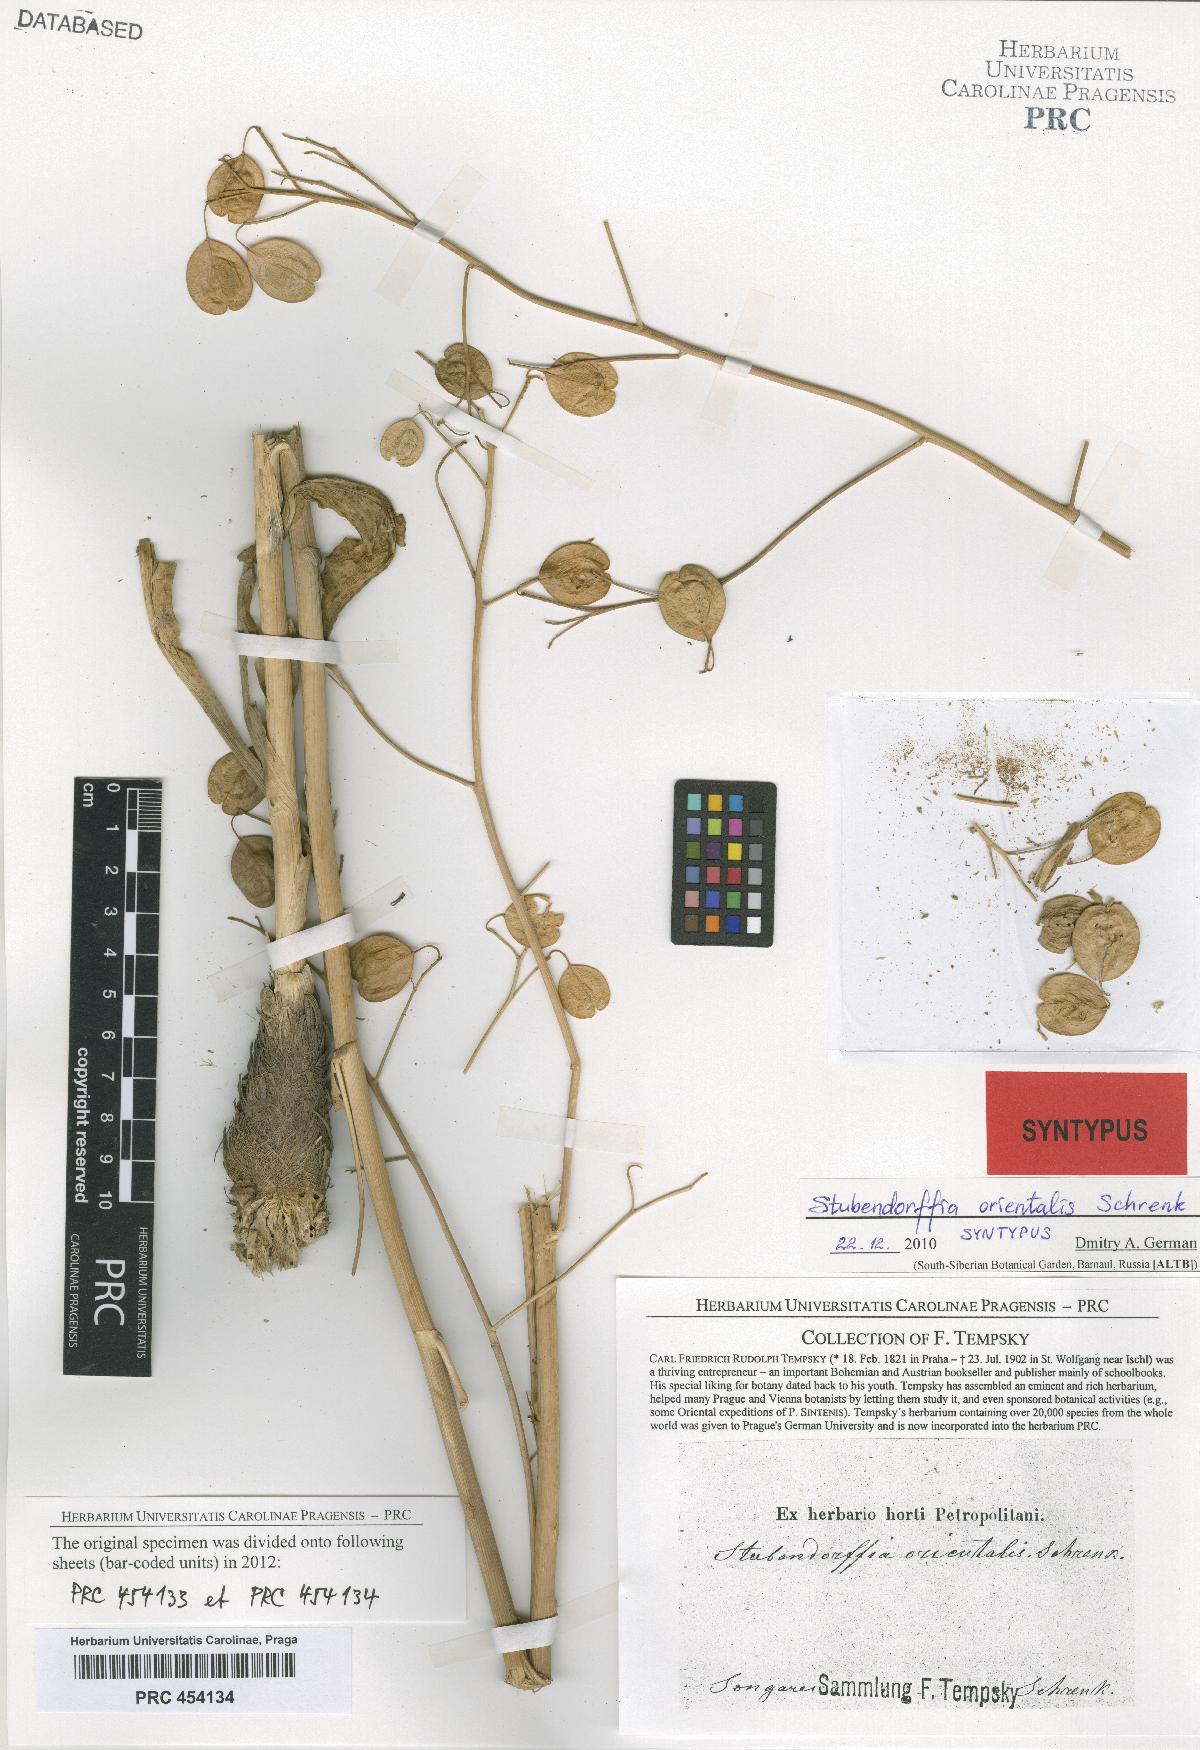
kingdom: Plantae
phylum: Tracheophyta
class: Magnoliopsida
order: Brassicales
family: Brassicaceae
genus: Lepidium
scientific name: Lepidium orientale
